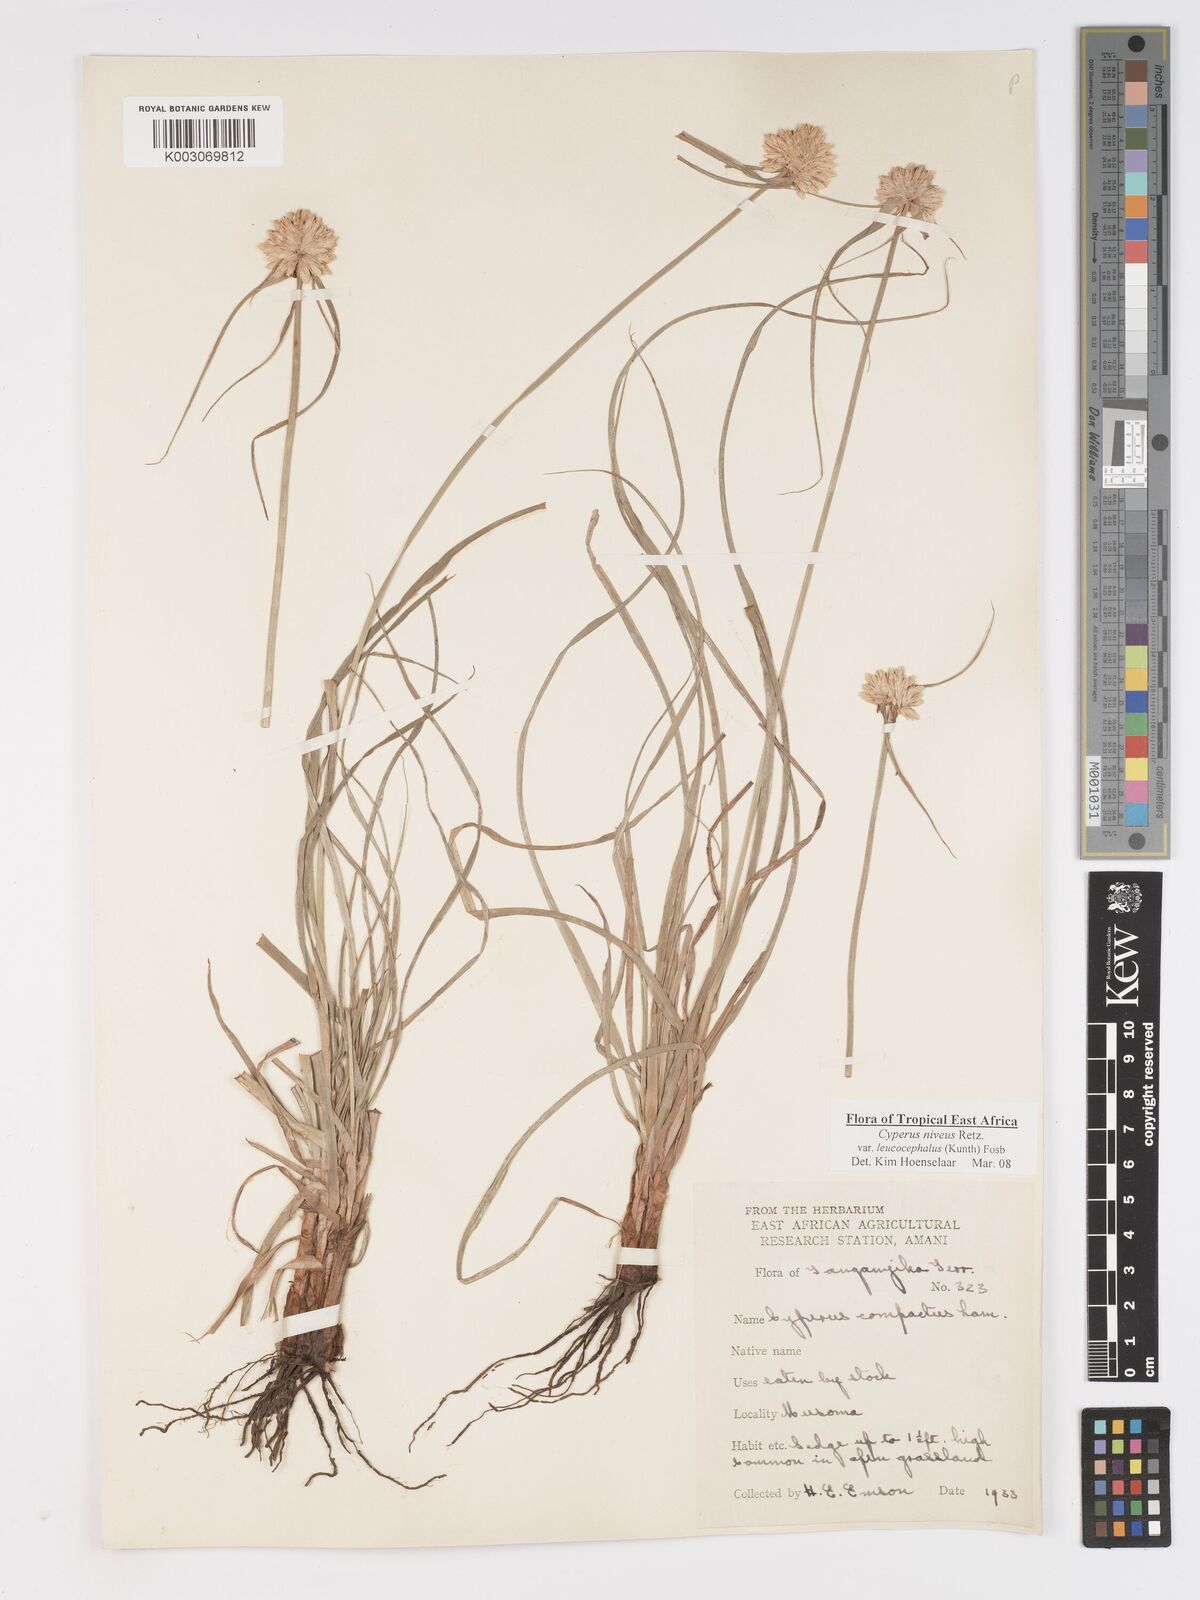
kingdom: Plantae
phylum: Tracheophyta
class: Liliopsida
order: Poales
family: Cyperaceae
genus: Cyperus
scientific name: Cyperus niveus
